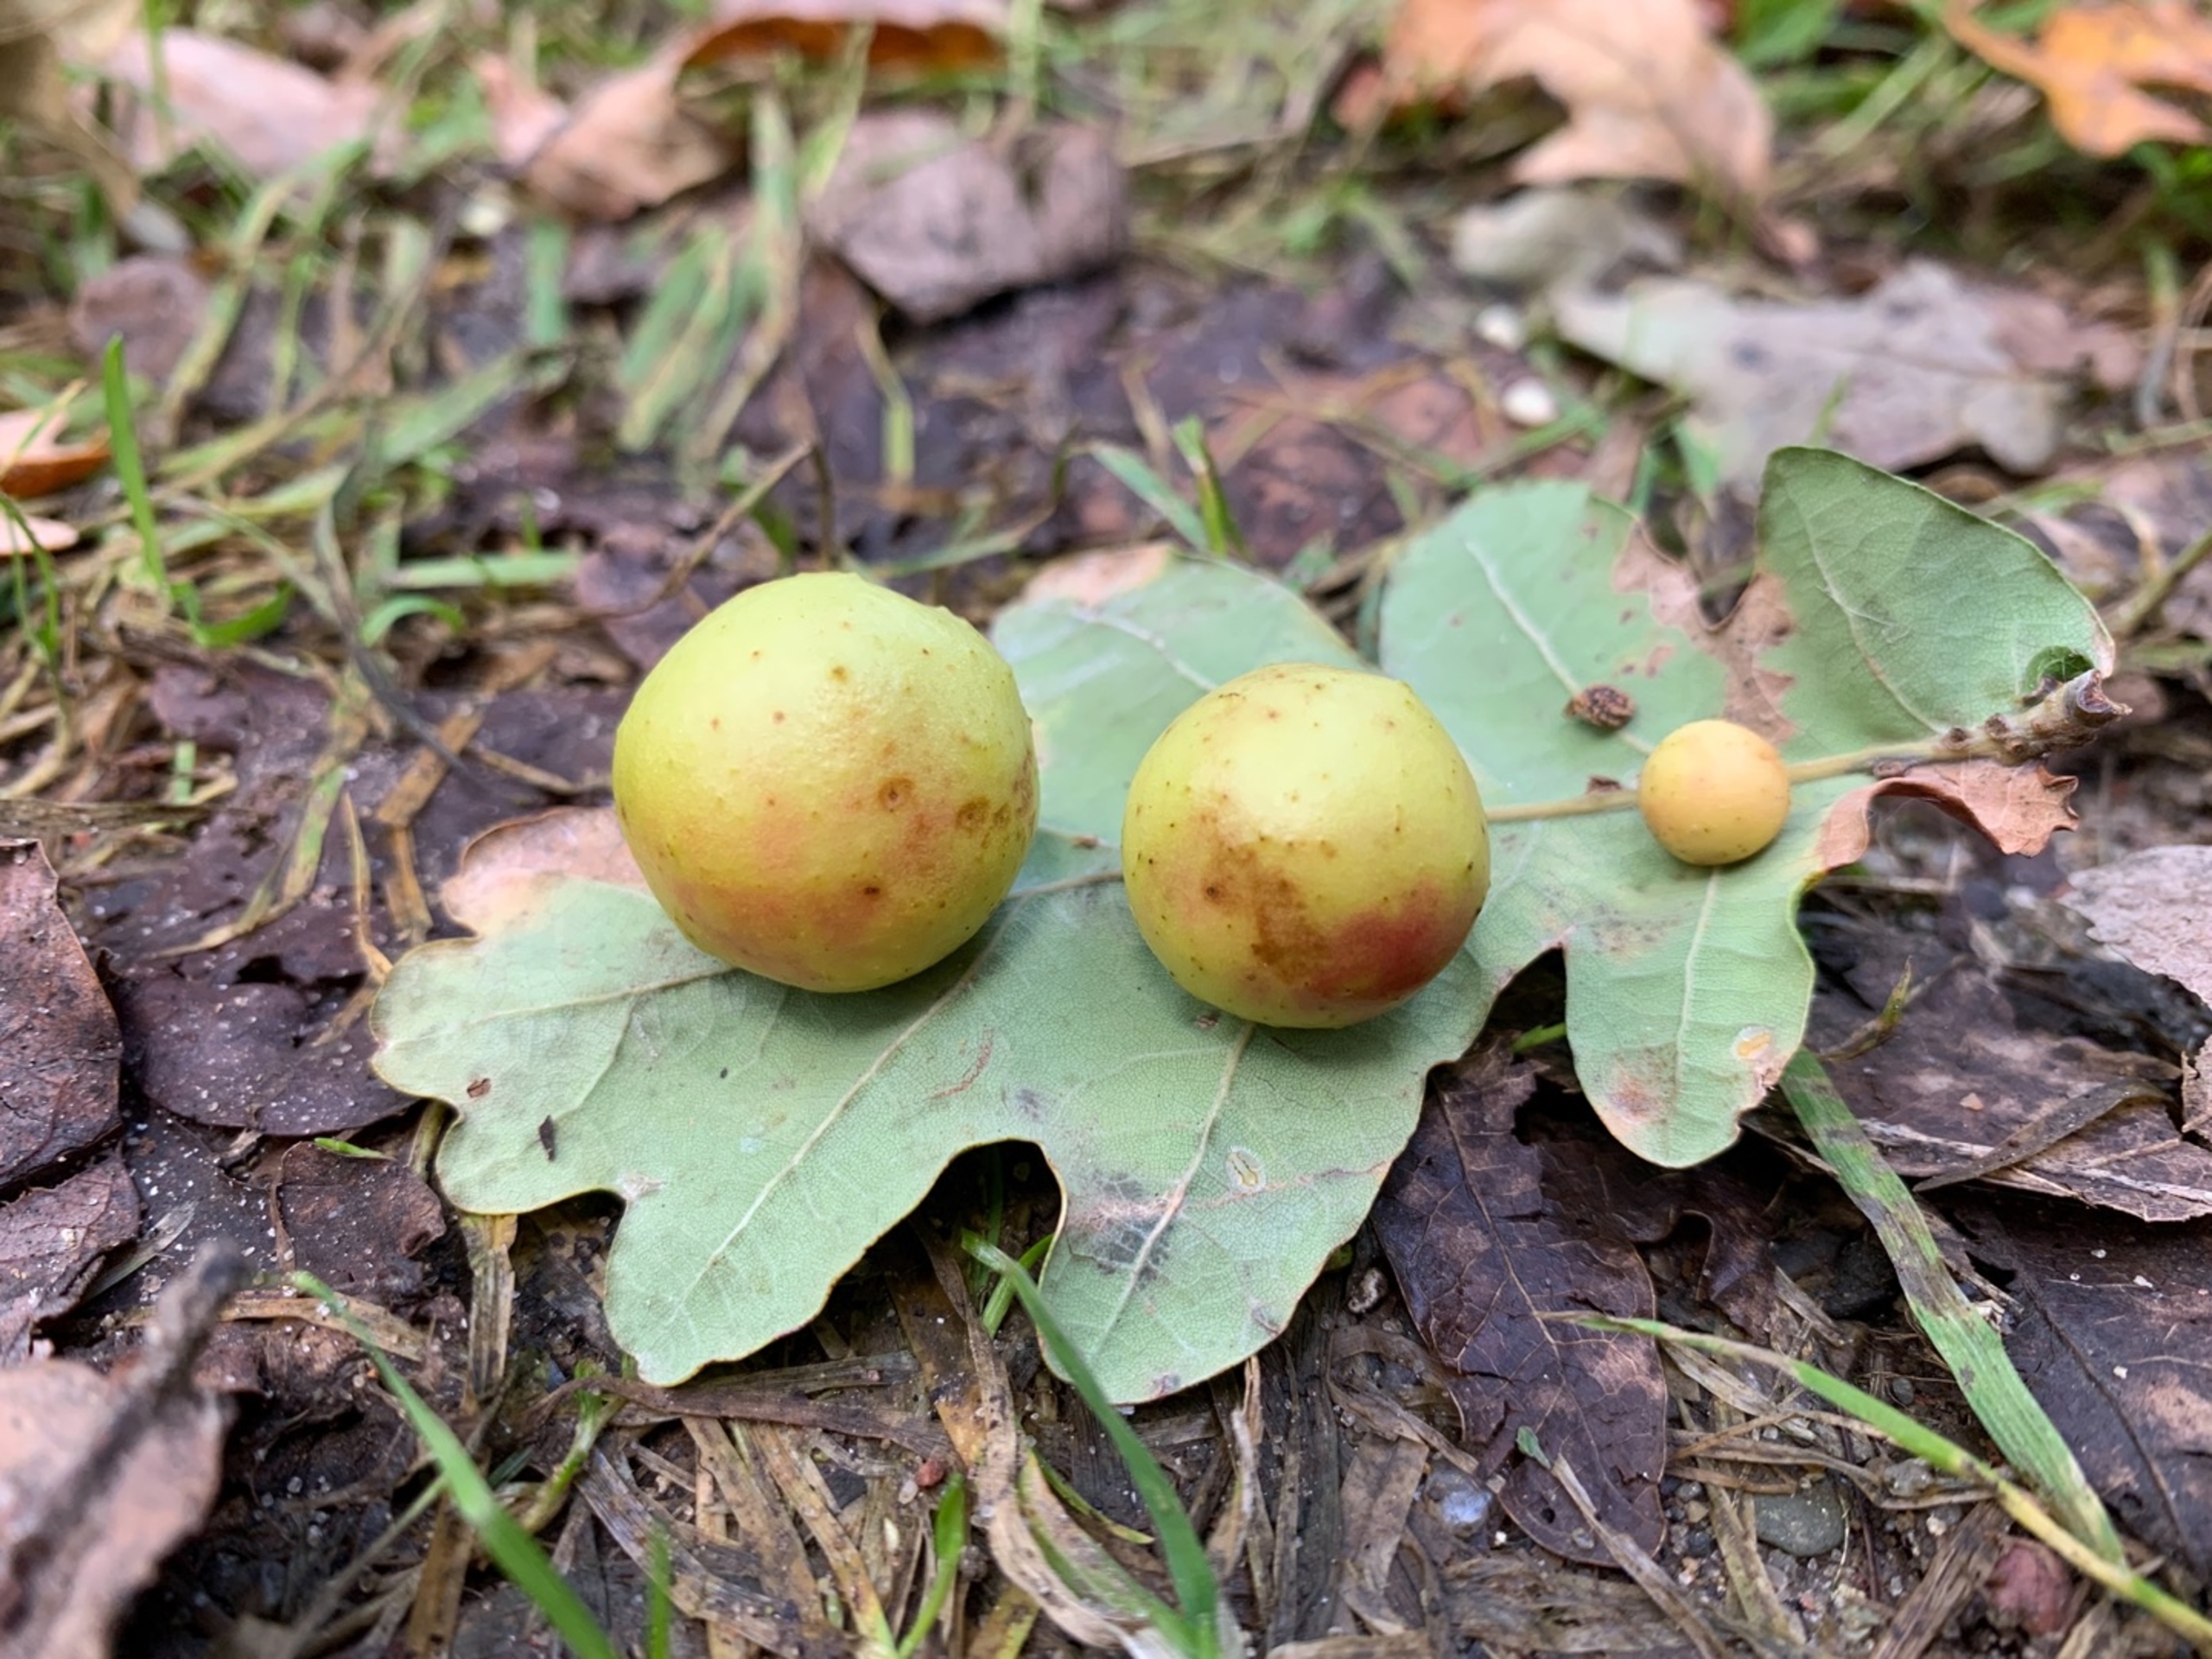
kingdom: Animalia
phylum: Arthropoda
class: Insecta
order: Hymenoptera
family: Cynipidae
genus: Cynips
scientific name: Cynips quercusfolii
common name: Stor galæblehveps
